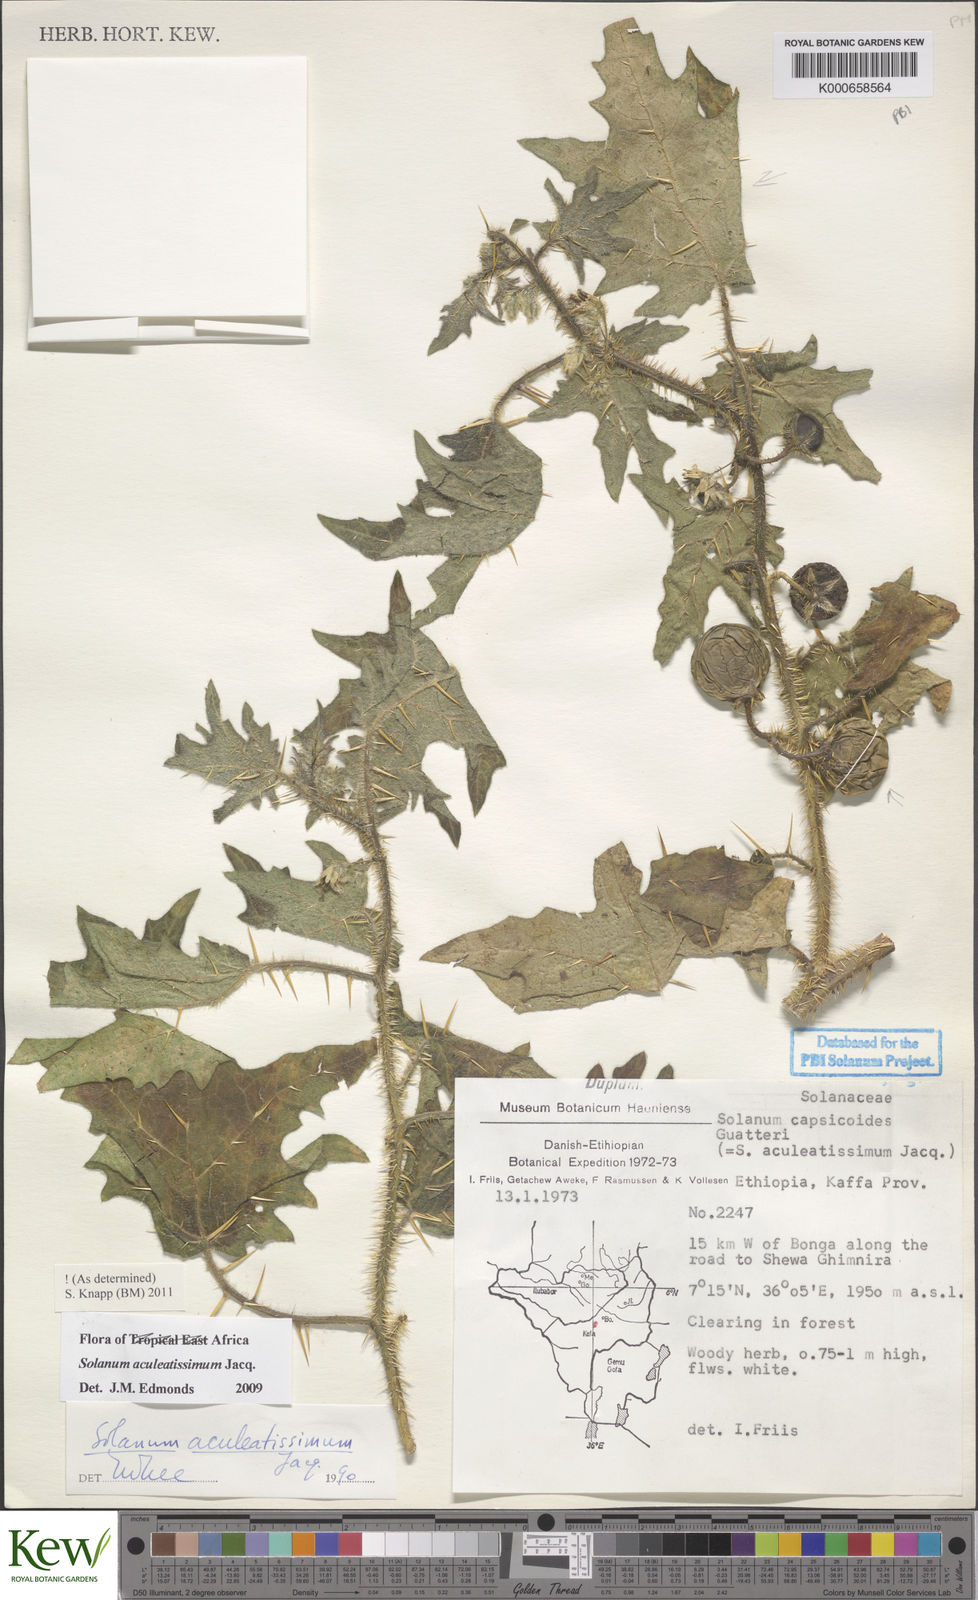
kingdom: Plantae
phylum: Tracheophyta
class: Magnoliopsida
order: Solanales
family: Solanaceae
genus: Solanum
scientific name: Solanum aculeatissimum
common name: Dutch eggplant
